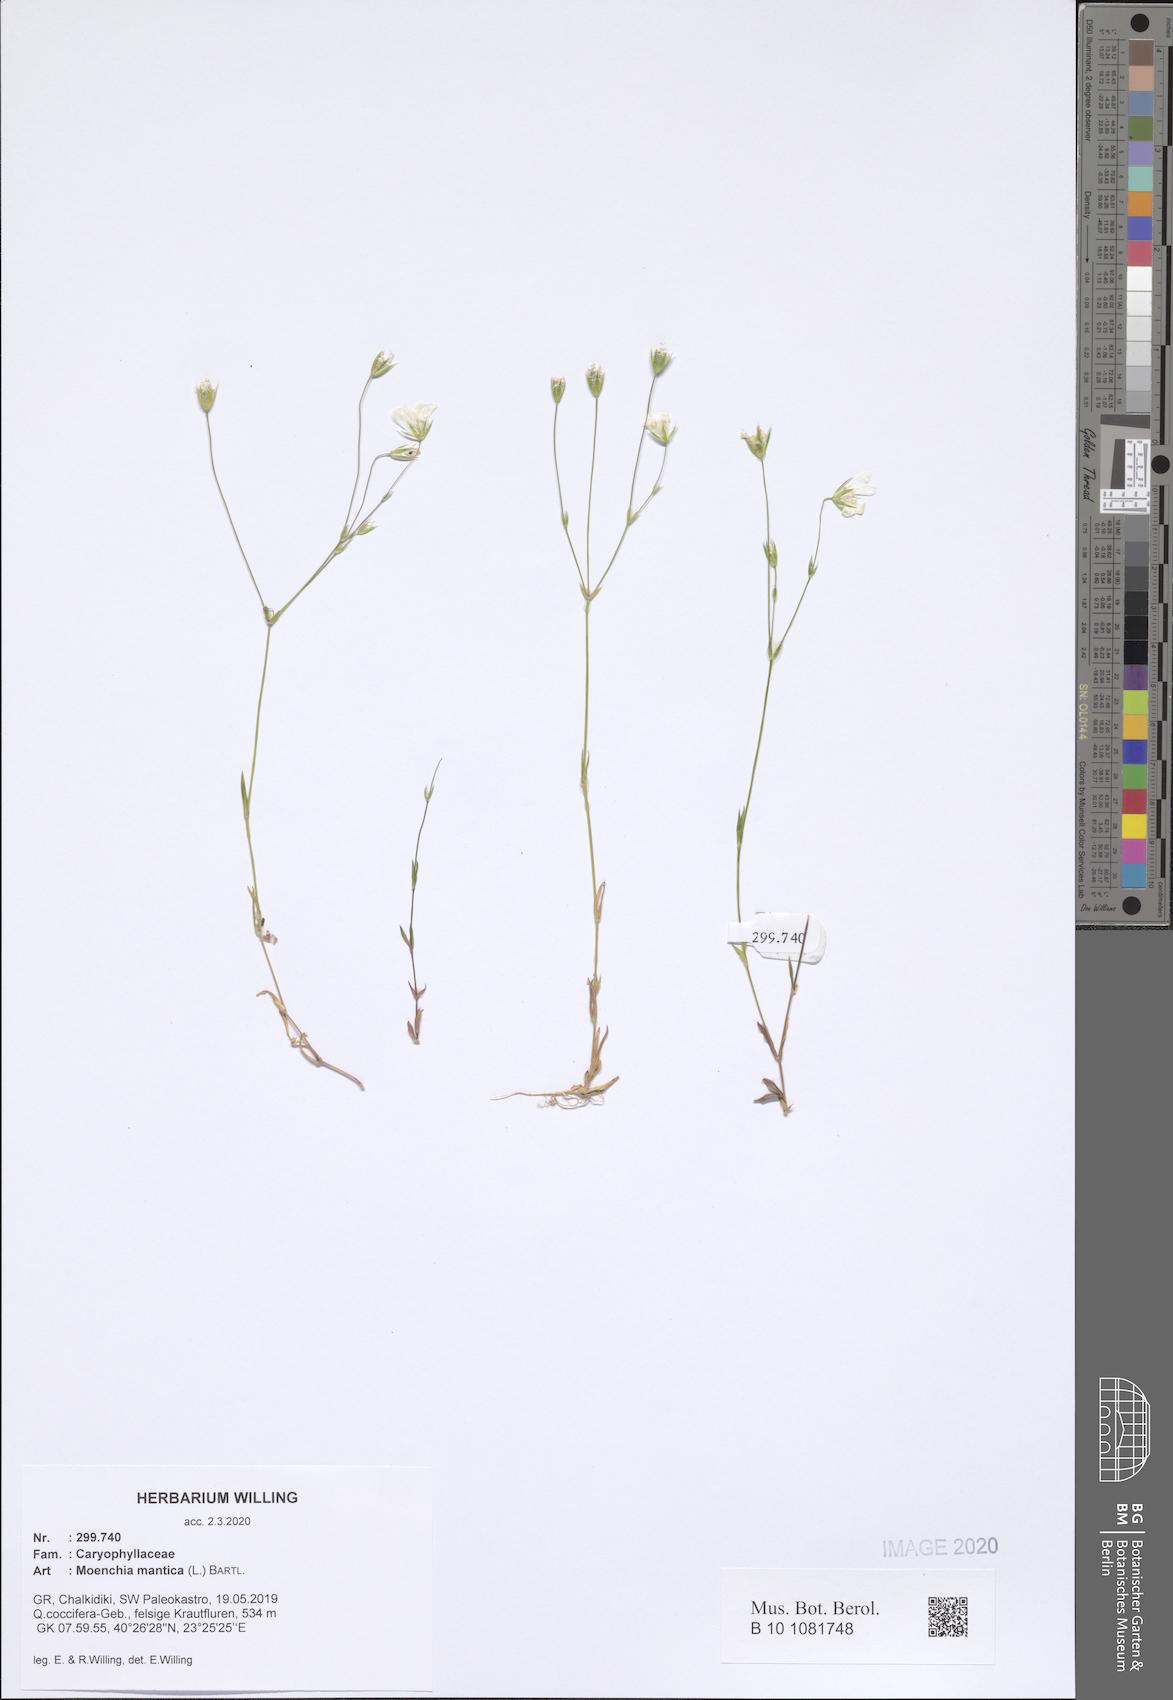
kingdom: Plantae
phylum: Tracheophyta
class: Magnoliopsida
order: Caryophyllales
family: Caryophyllaceae
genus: Moenchia
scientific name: Moenchia mantica
